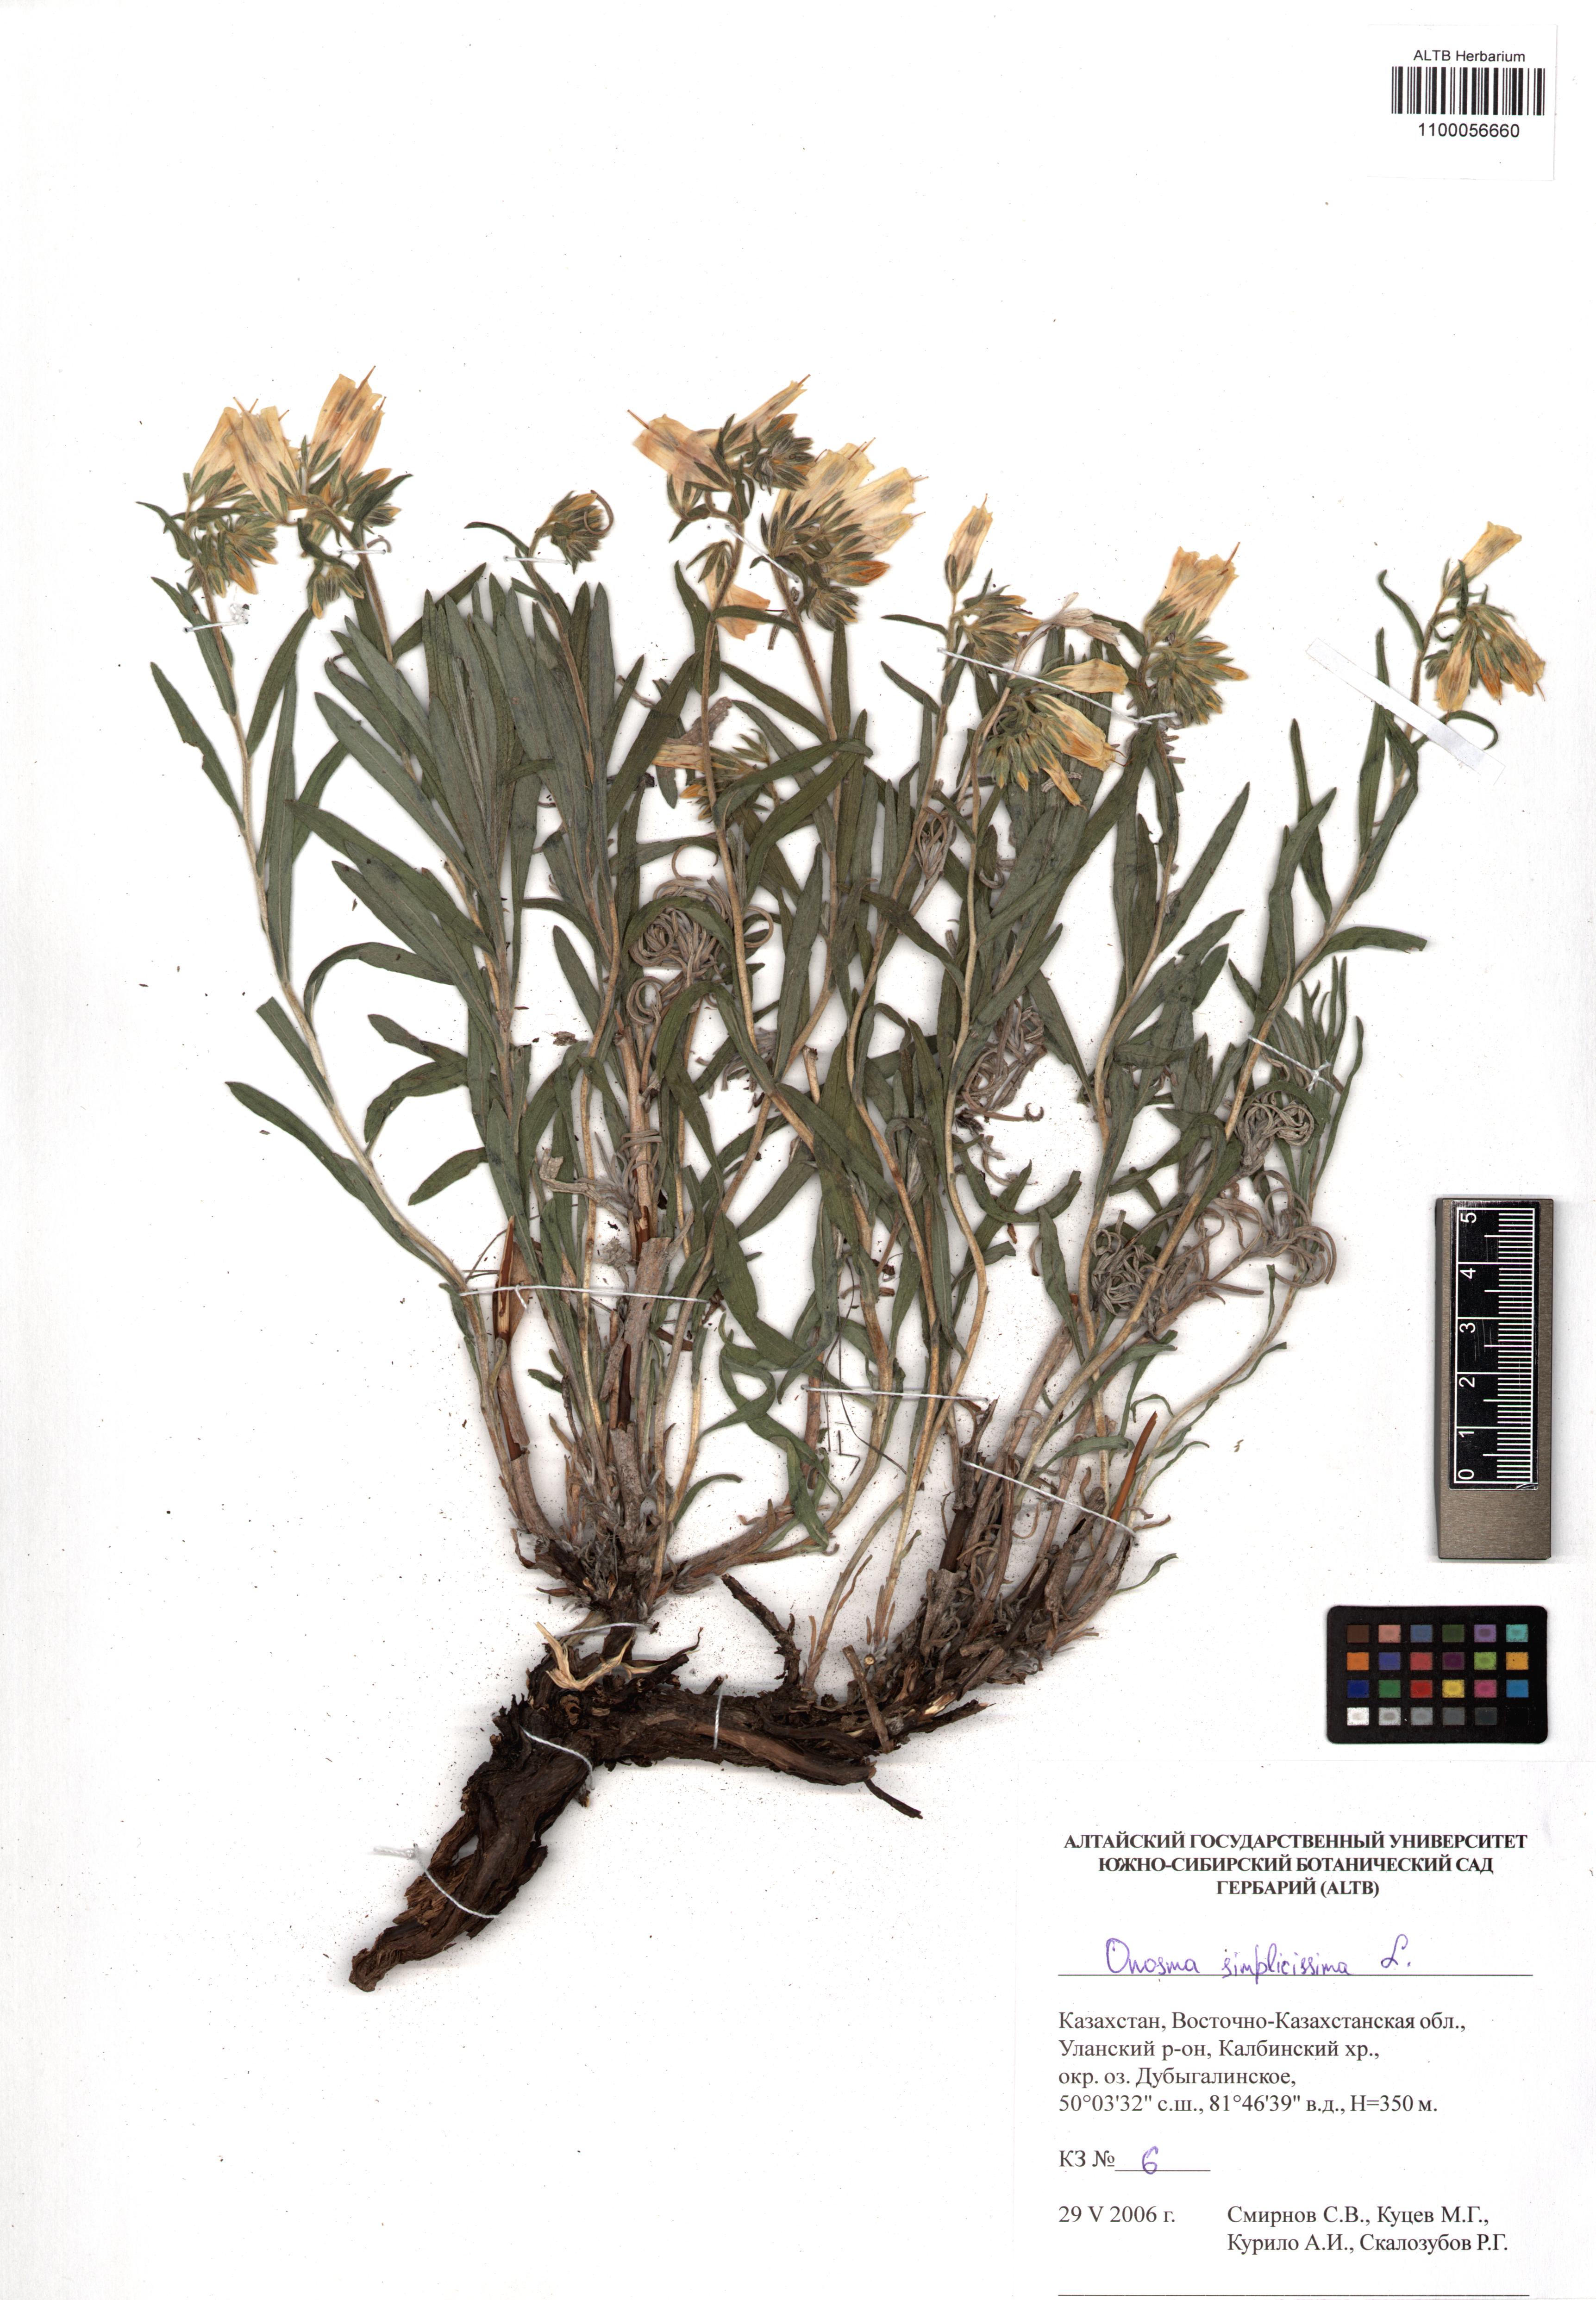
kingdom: Plantae
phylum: Tracheophyta
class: Magnoliopsida
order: Boraginales
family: Boraginaceae
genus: Onosma
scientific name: Onosma simplicissima
